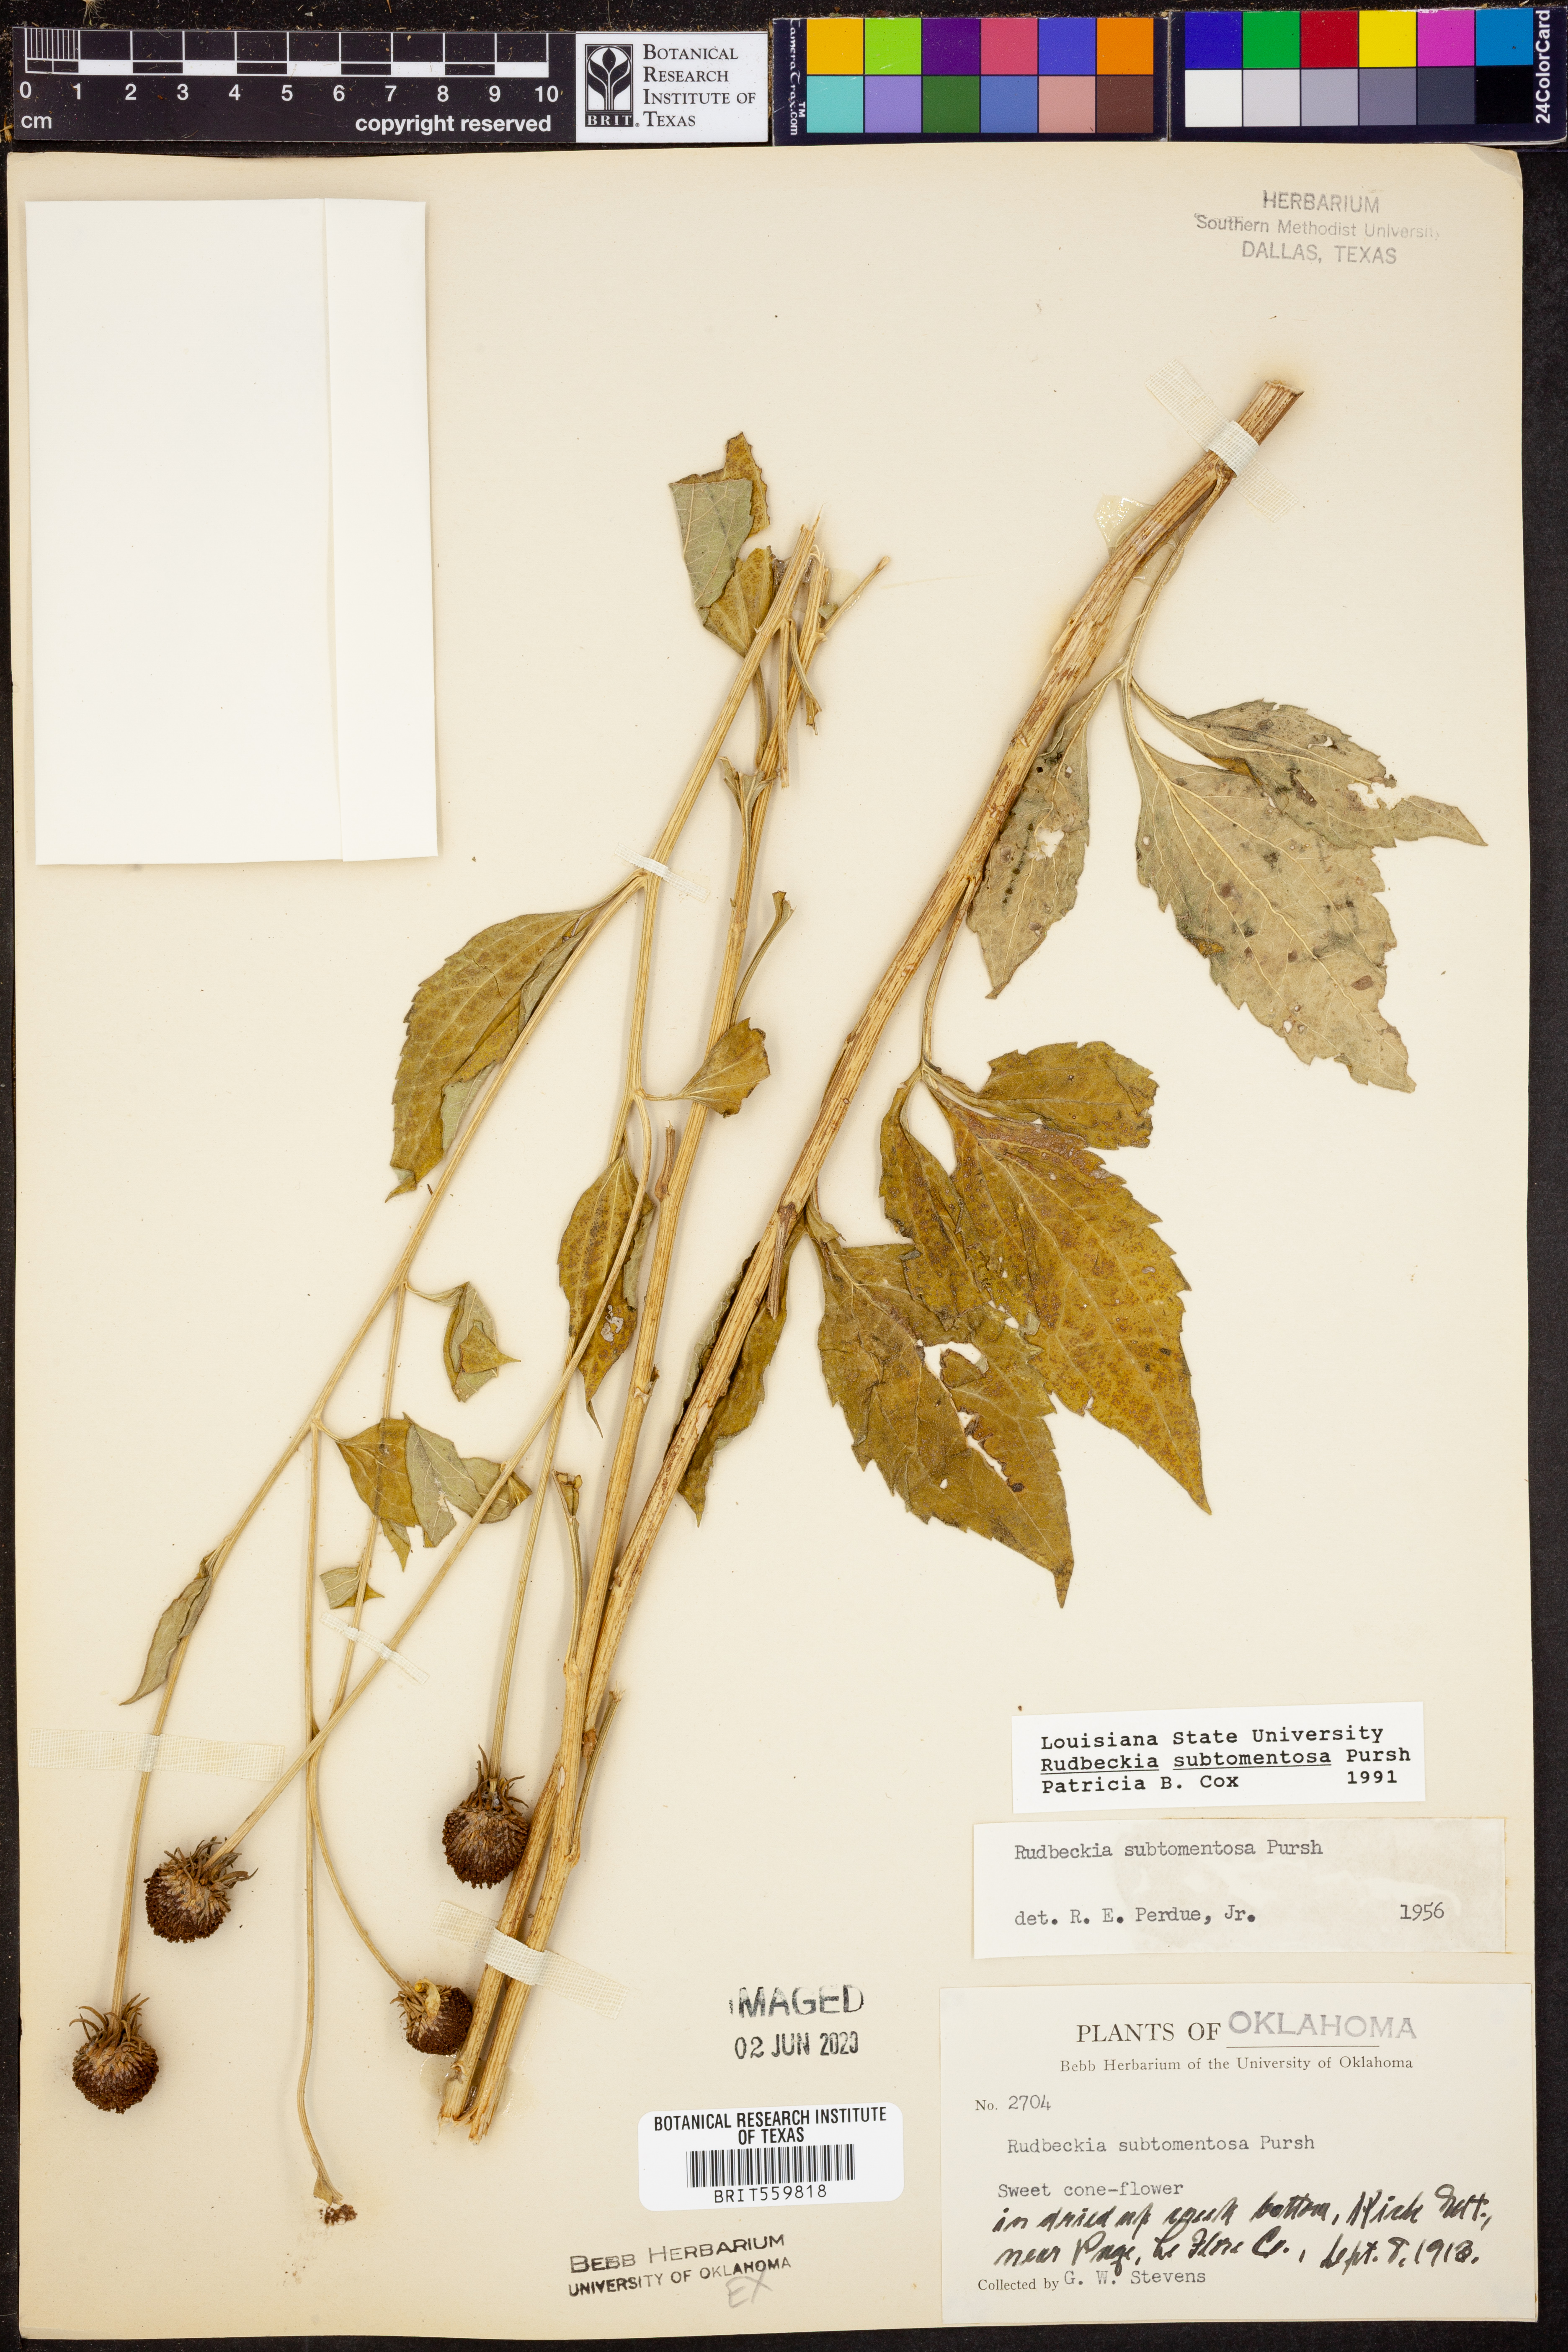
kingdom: Plantae
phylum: Tracheophyta
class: Magnoliopsida
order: Asterales
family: Asteraceae
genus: Rudbeckia
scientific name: Rudbeckia subtomentosa
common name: Sweet coneflower
